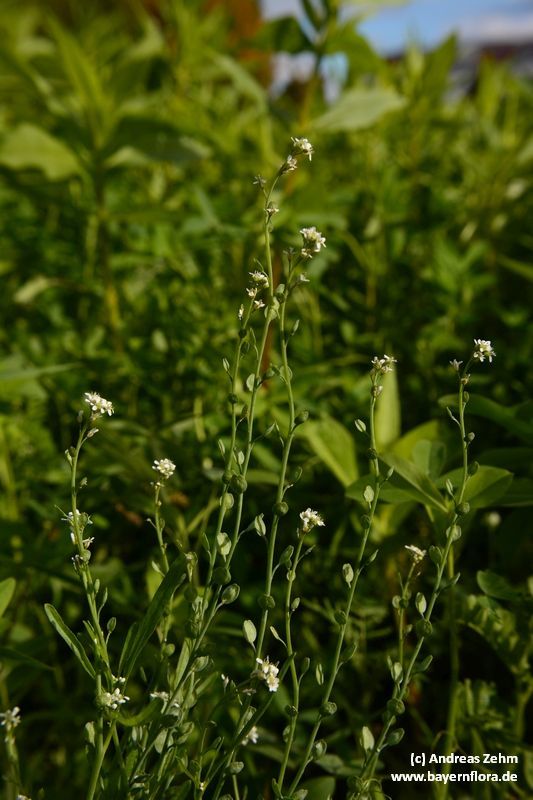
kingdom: Plantae
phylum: Tracheophyta
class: Magnoliopsida
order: Brassicales
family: Brassicaceae
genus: Lepidium
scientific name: Lepidium sativum
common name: Garden cress
